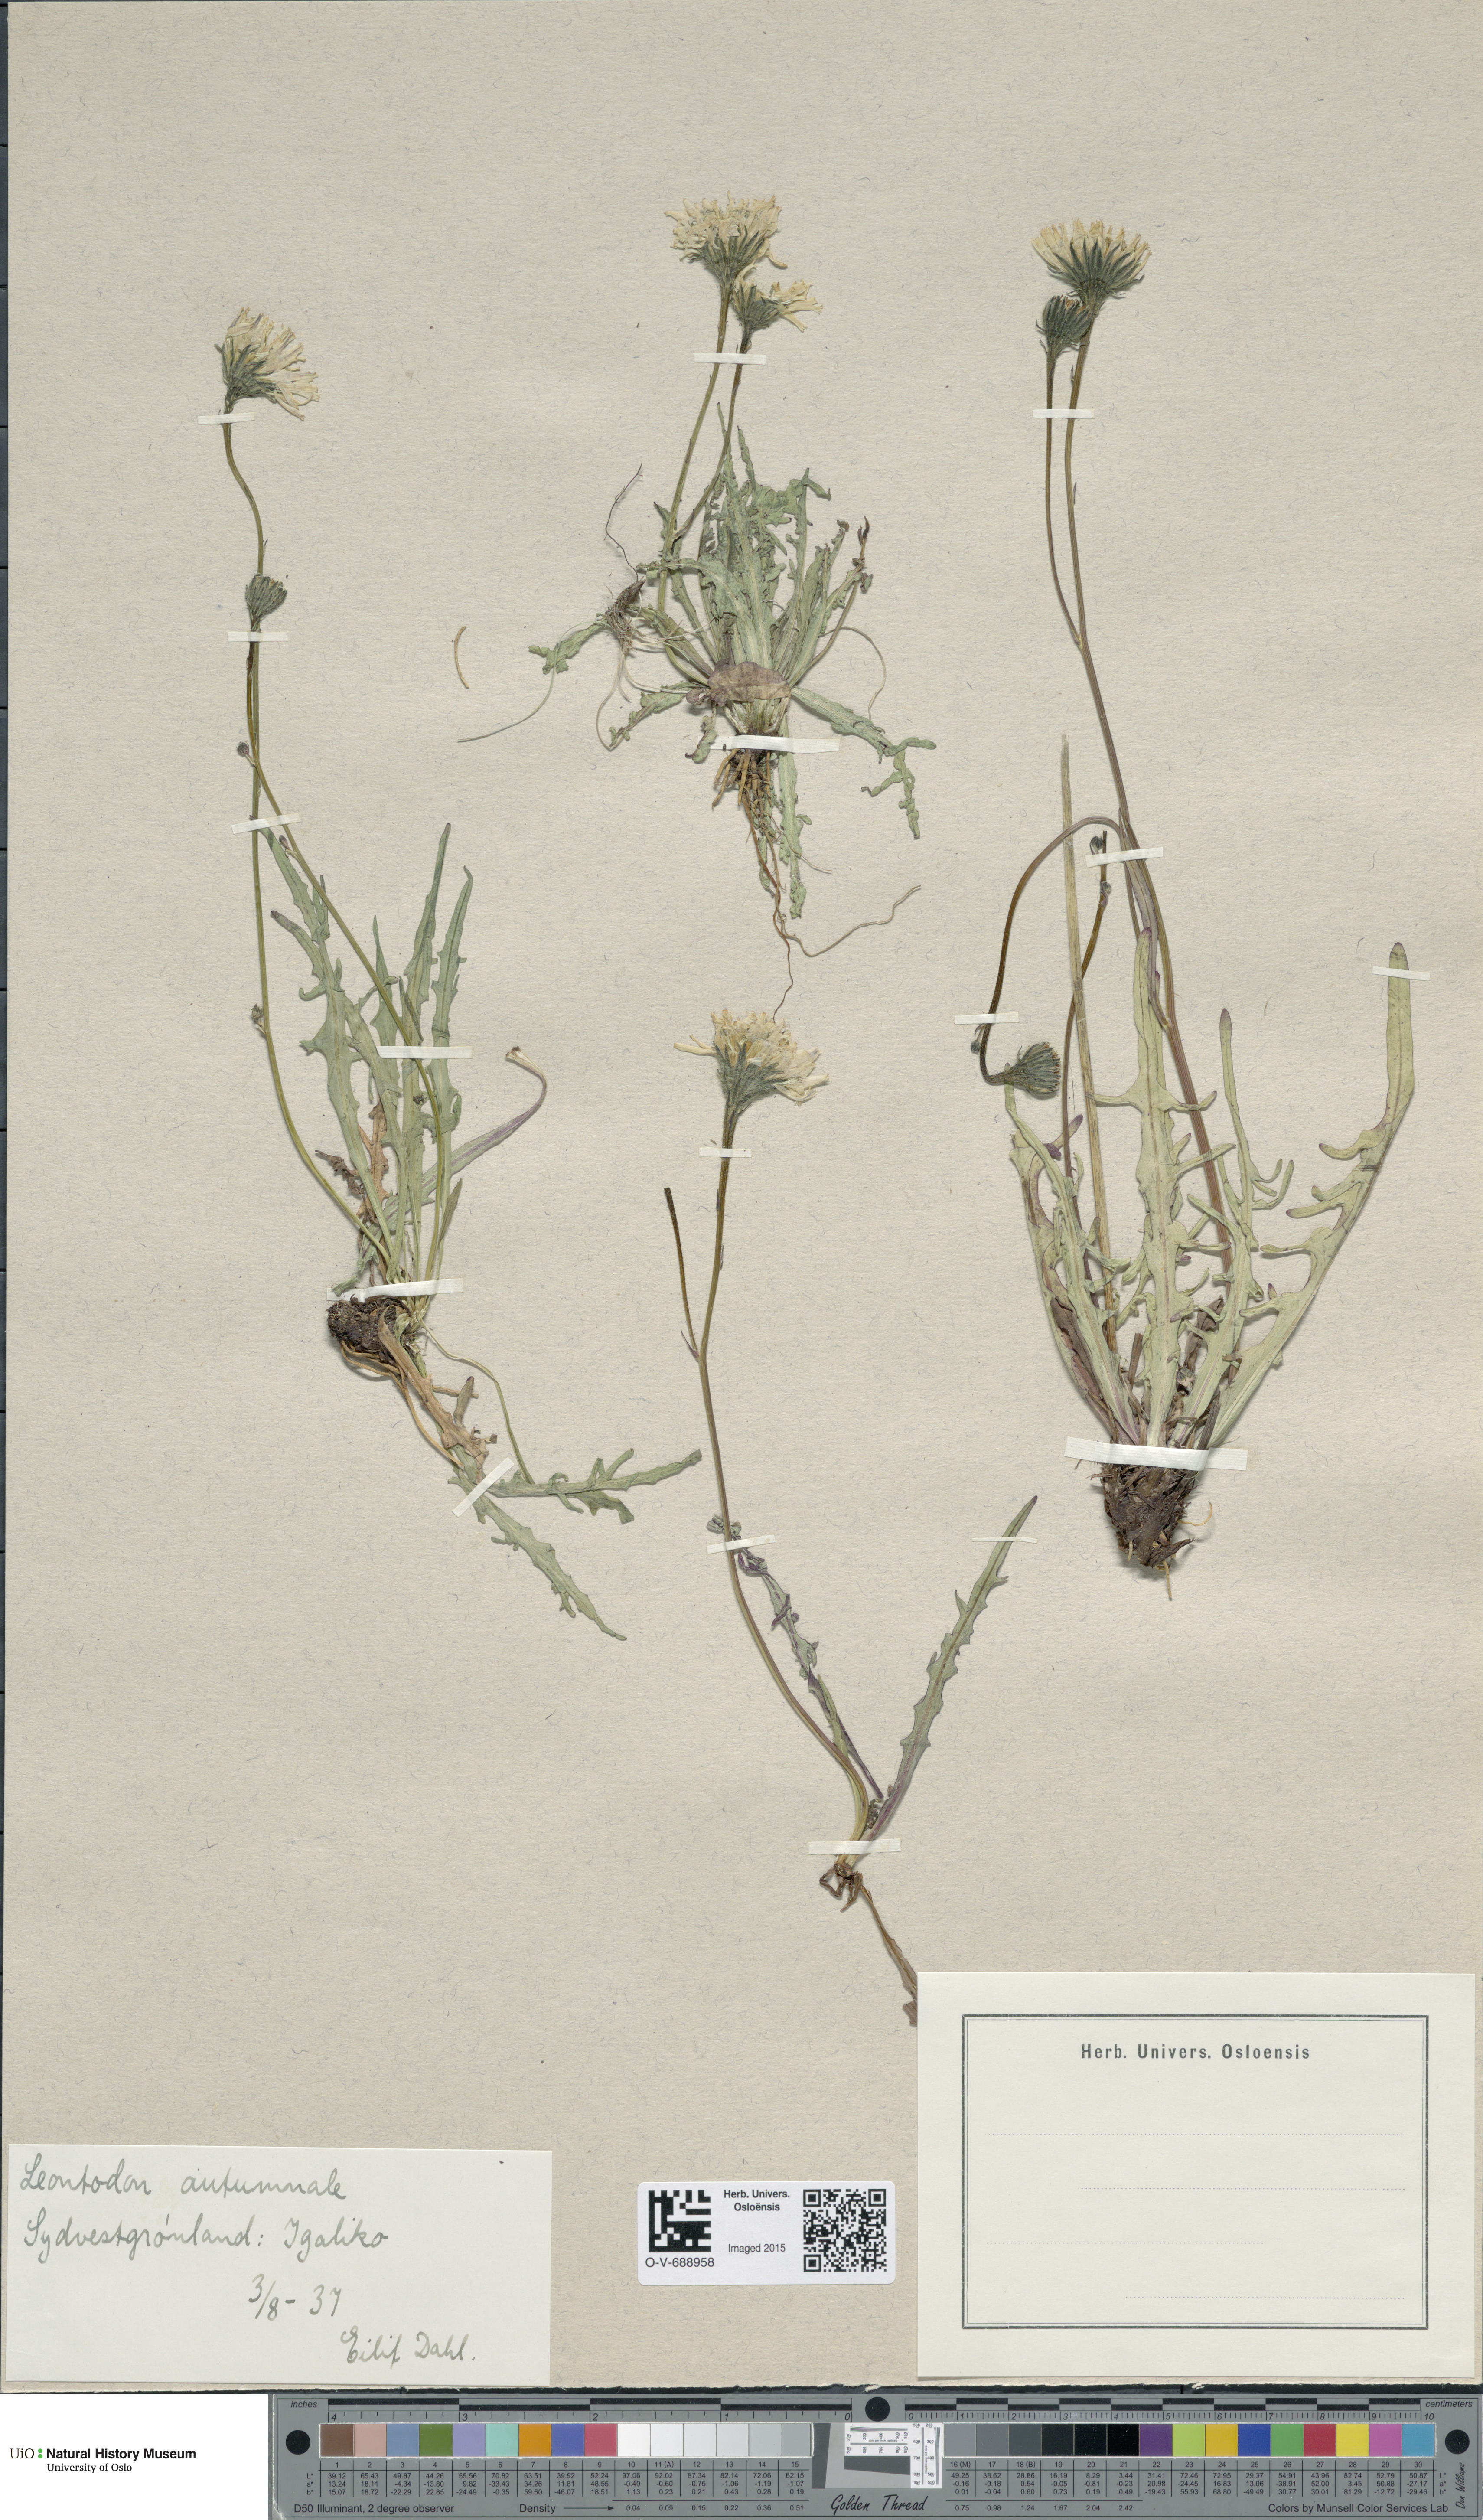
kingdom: Plantae
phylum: Tracheophyta
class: Magnoliopsida
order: Asterales
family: Asteraceae
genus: Scorzoneroides
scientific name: Scorzoneroides autumnalis
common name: Autumn hawkbit
